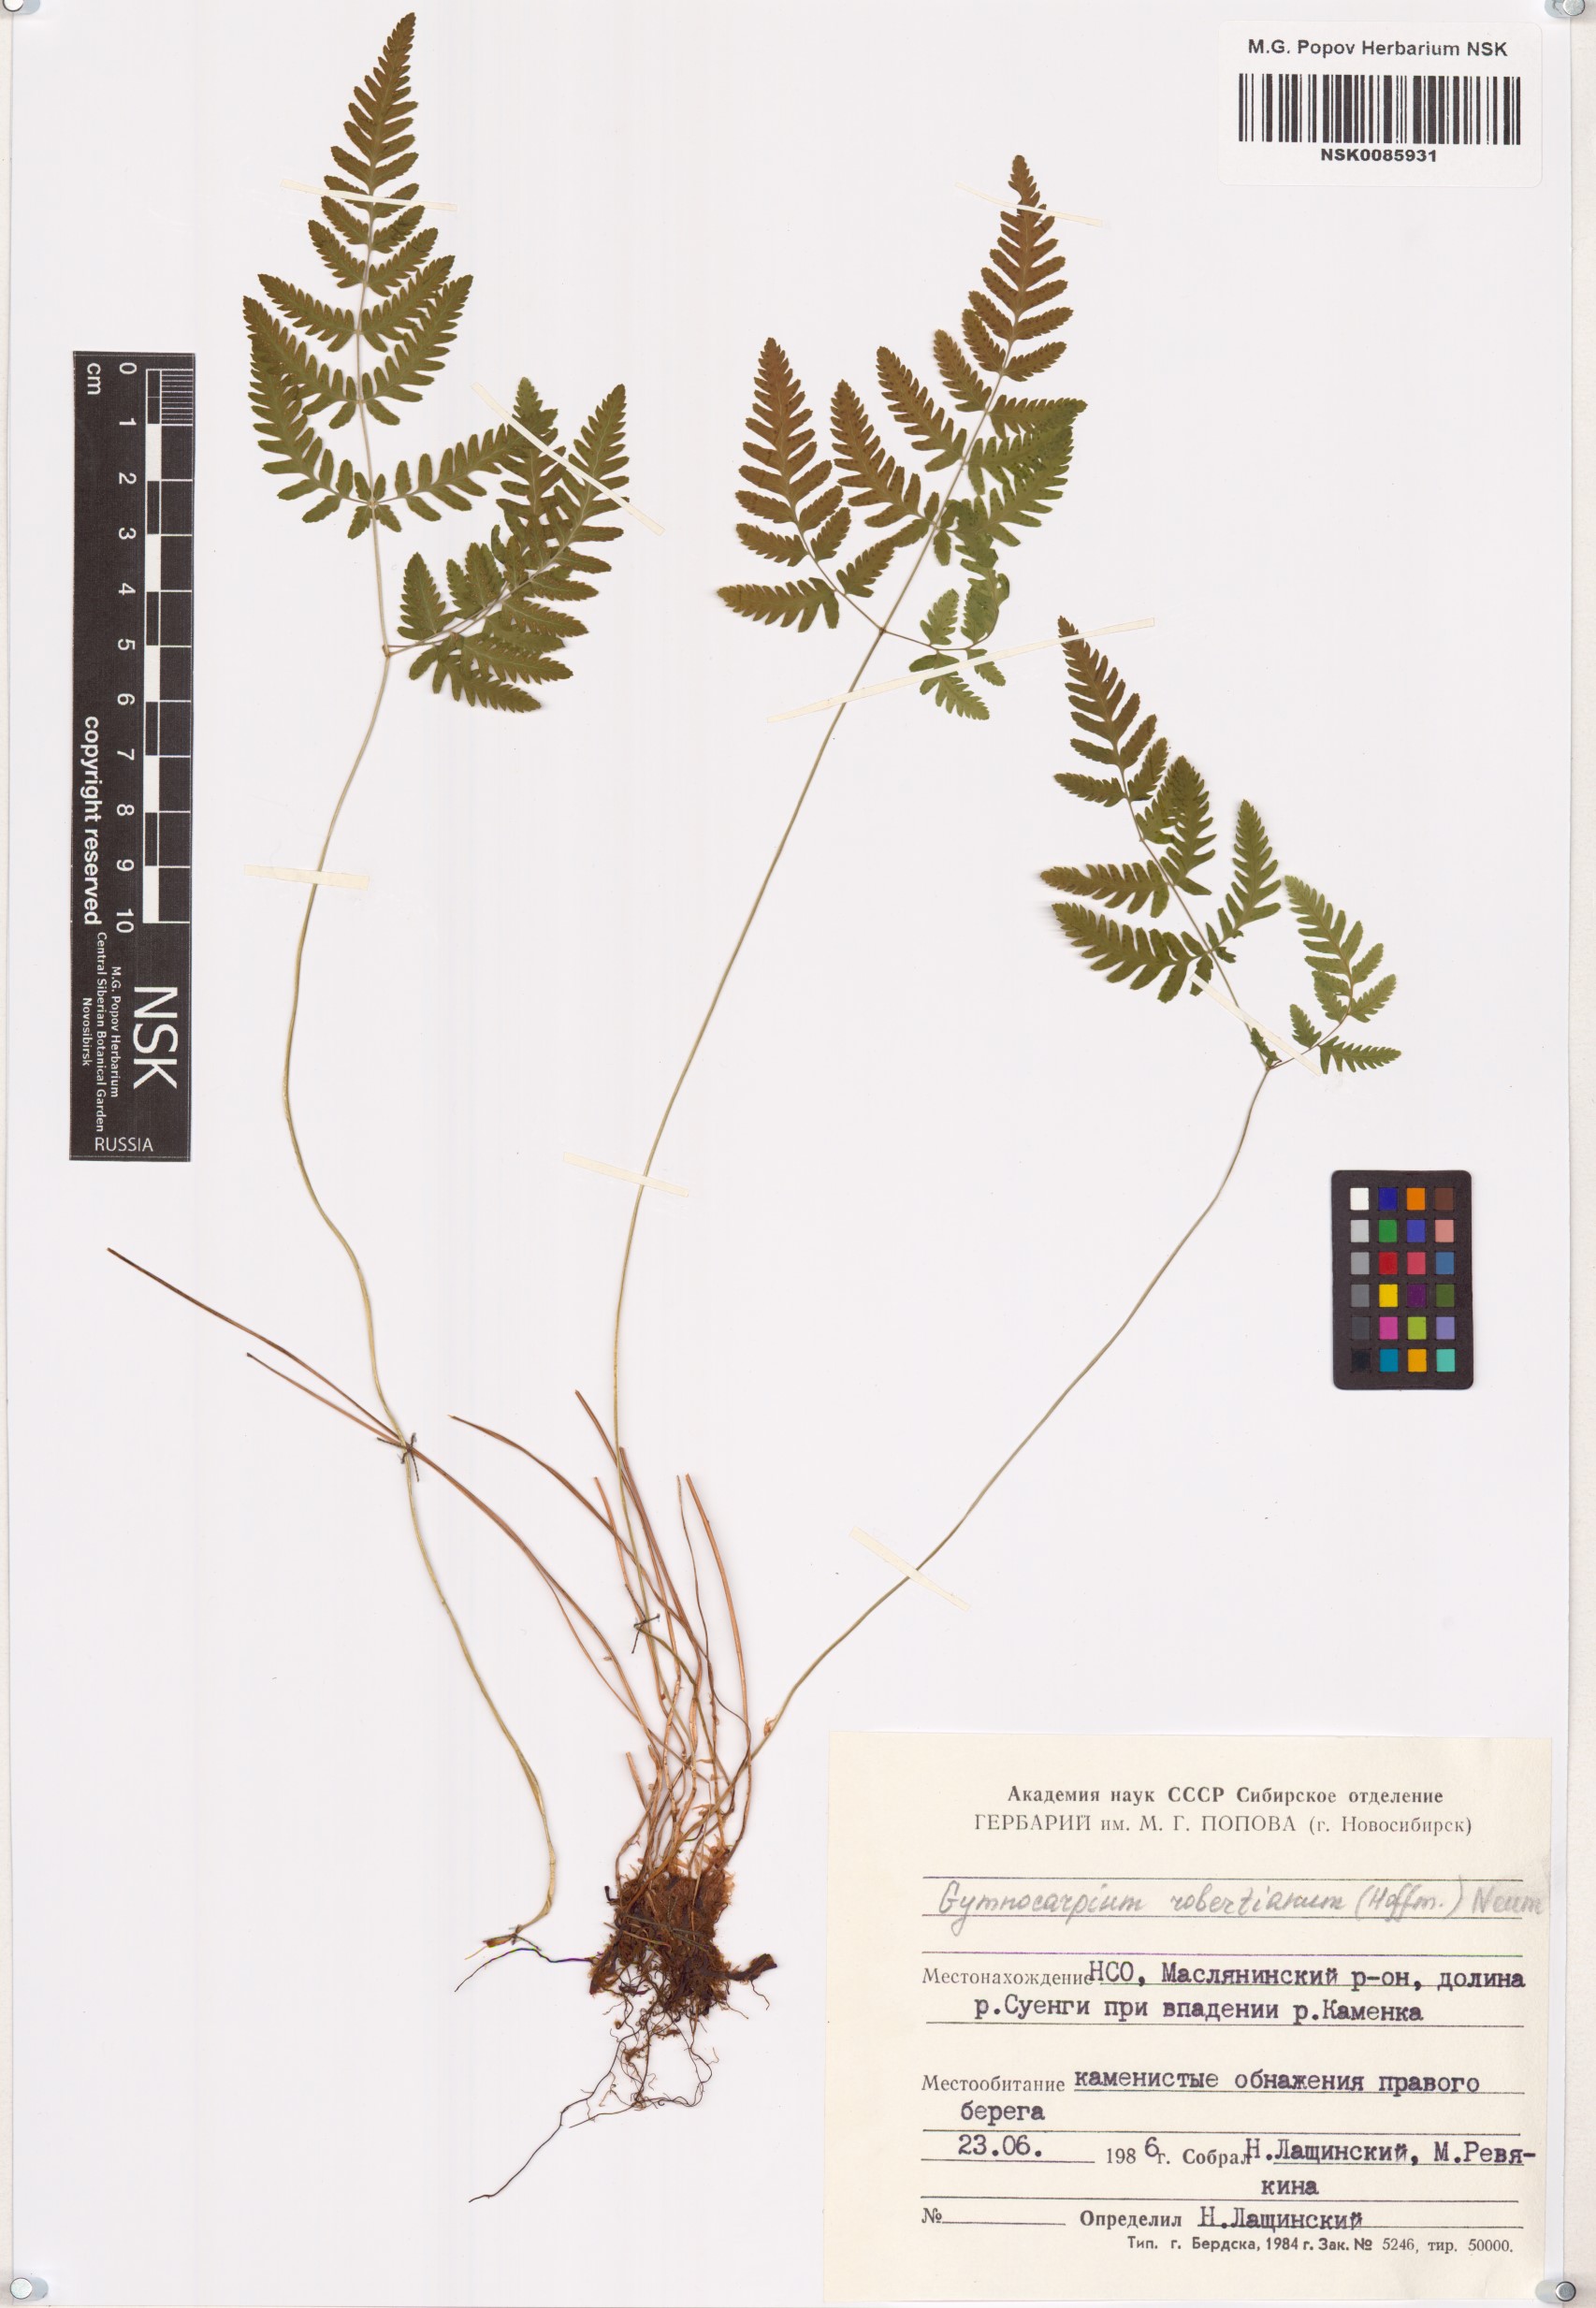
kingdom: Plantae
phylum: Tracheophyta
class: Polypodiopsida
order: Polypodiales
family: Cystopteridaceae
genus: Gymnocarpium
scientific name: Gymnocarpium robertianum
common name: Limestone fern
